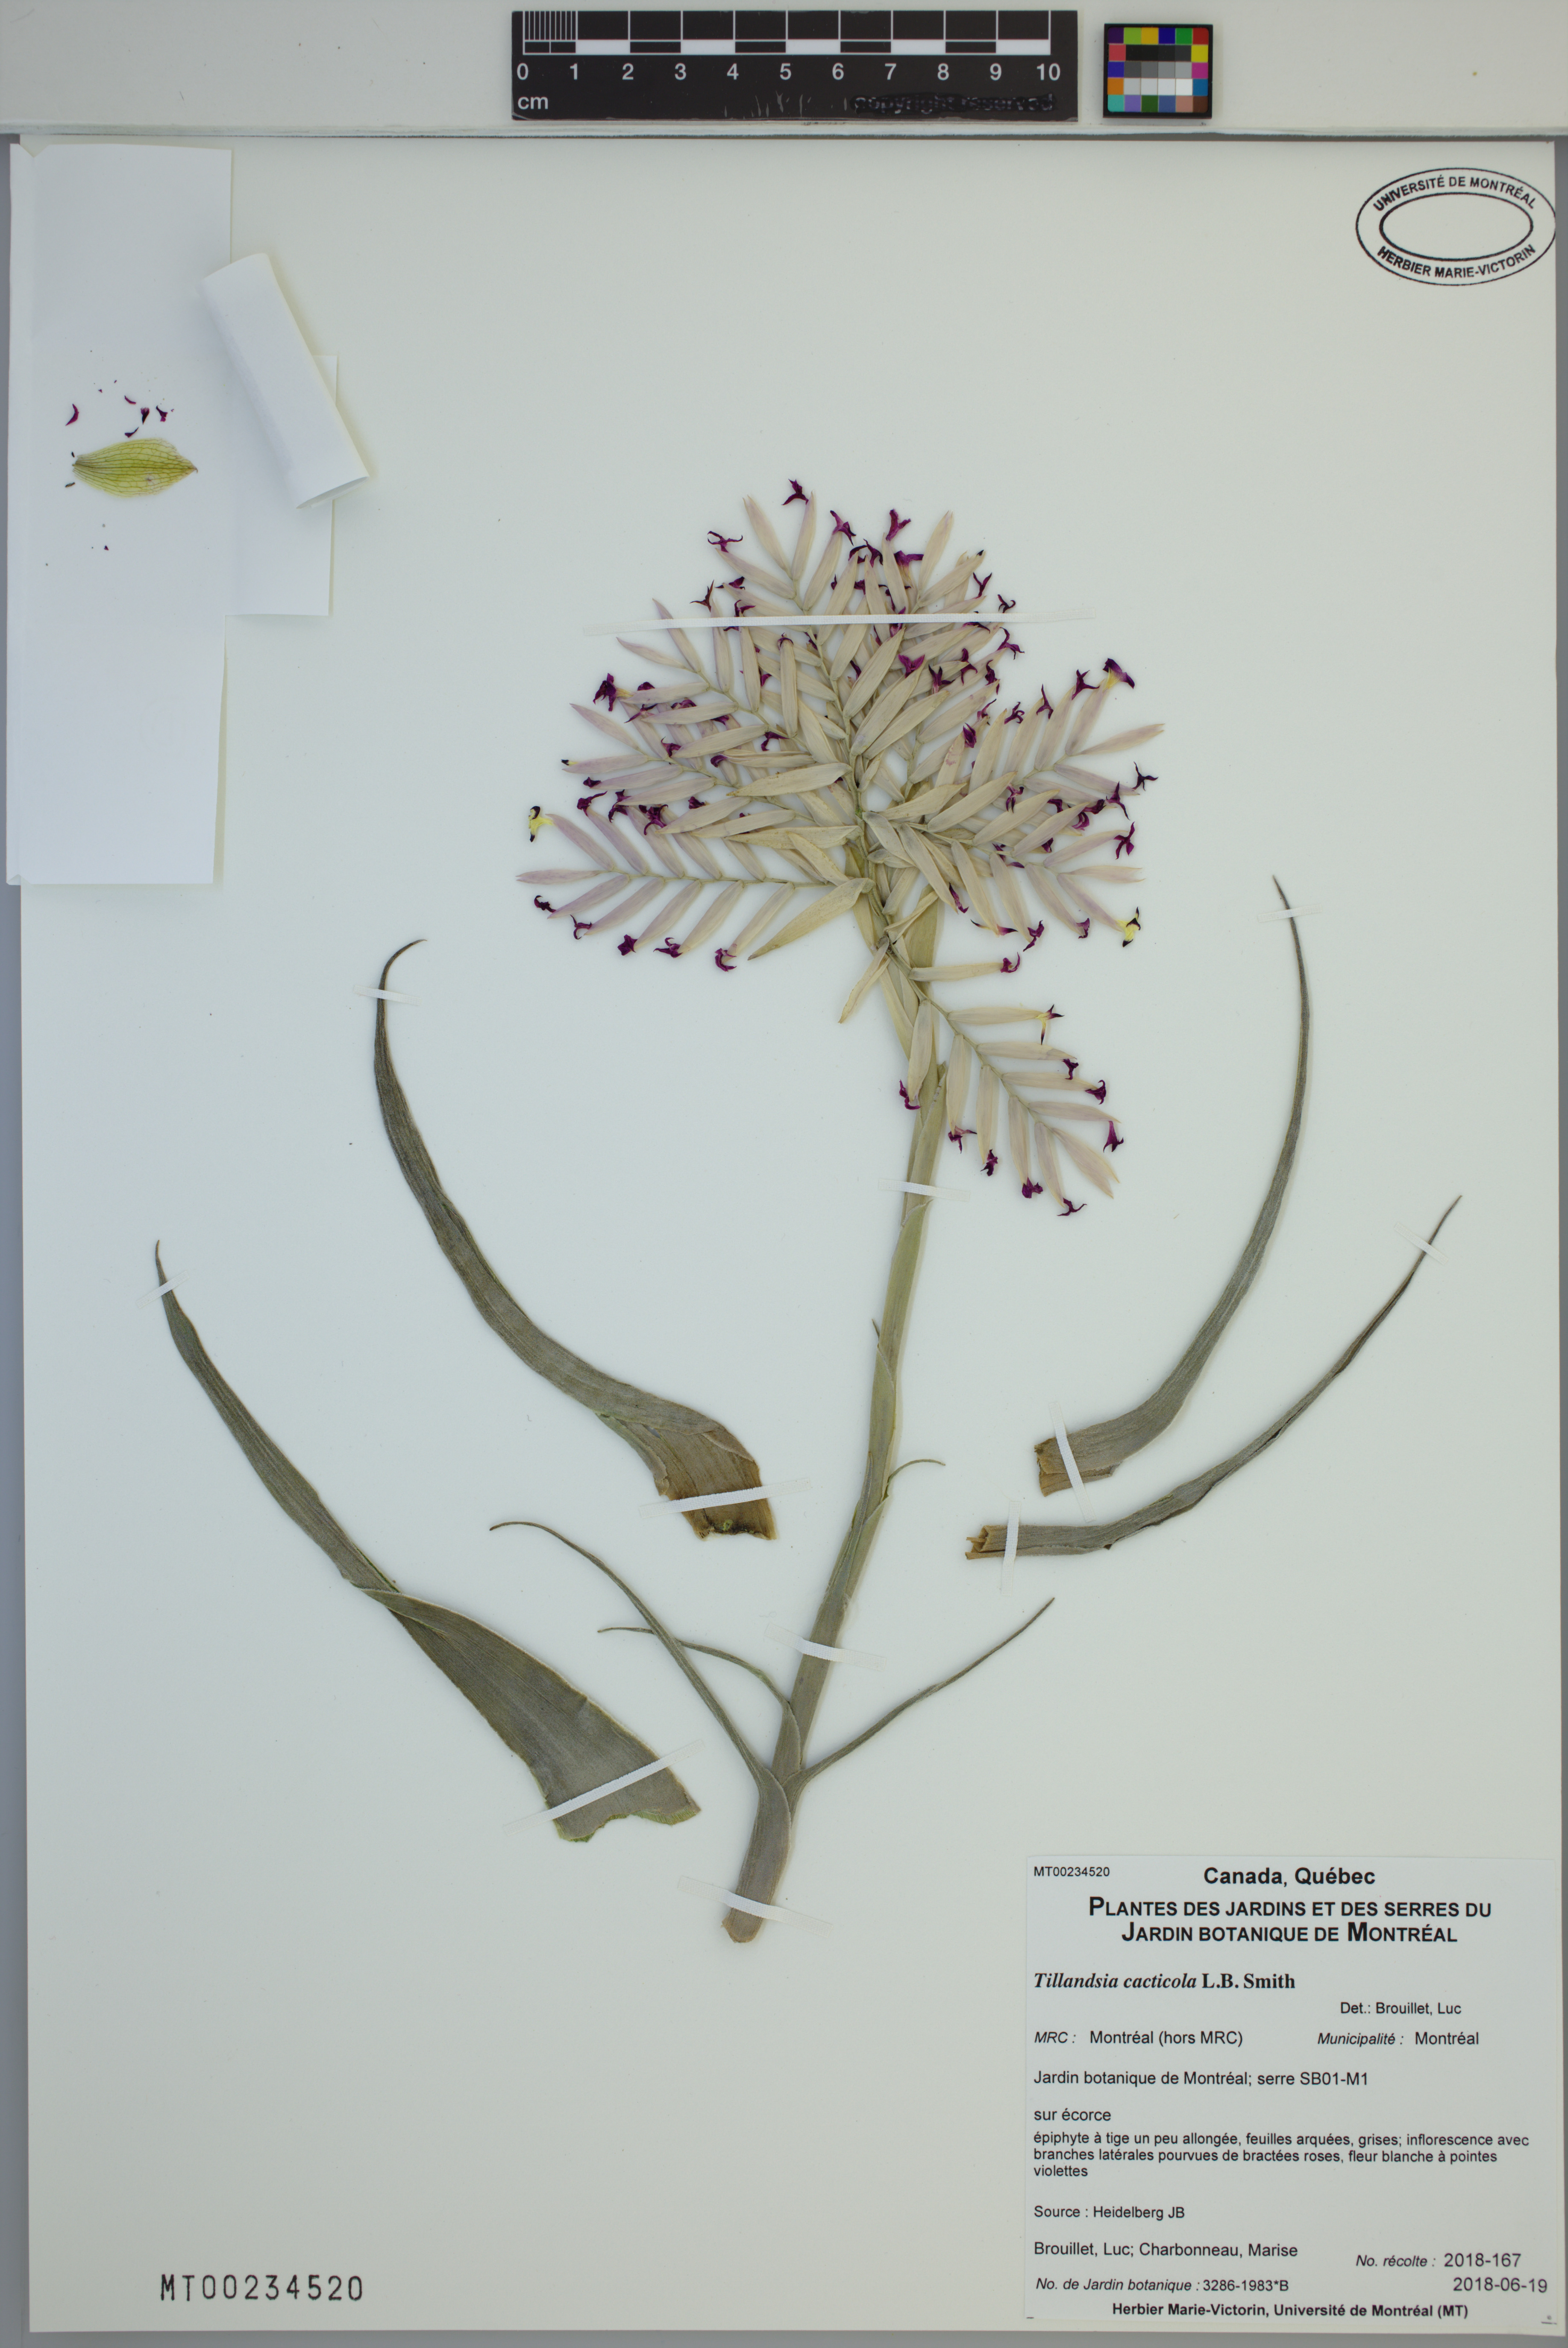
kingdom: Plantae
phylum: Tracheophyta
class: Liliopsida
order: Poales
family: Bromeliaceae
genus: Tillandsia
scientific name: Tillandsia cacticola
